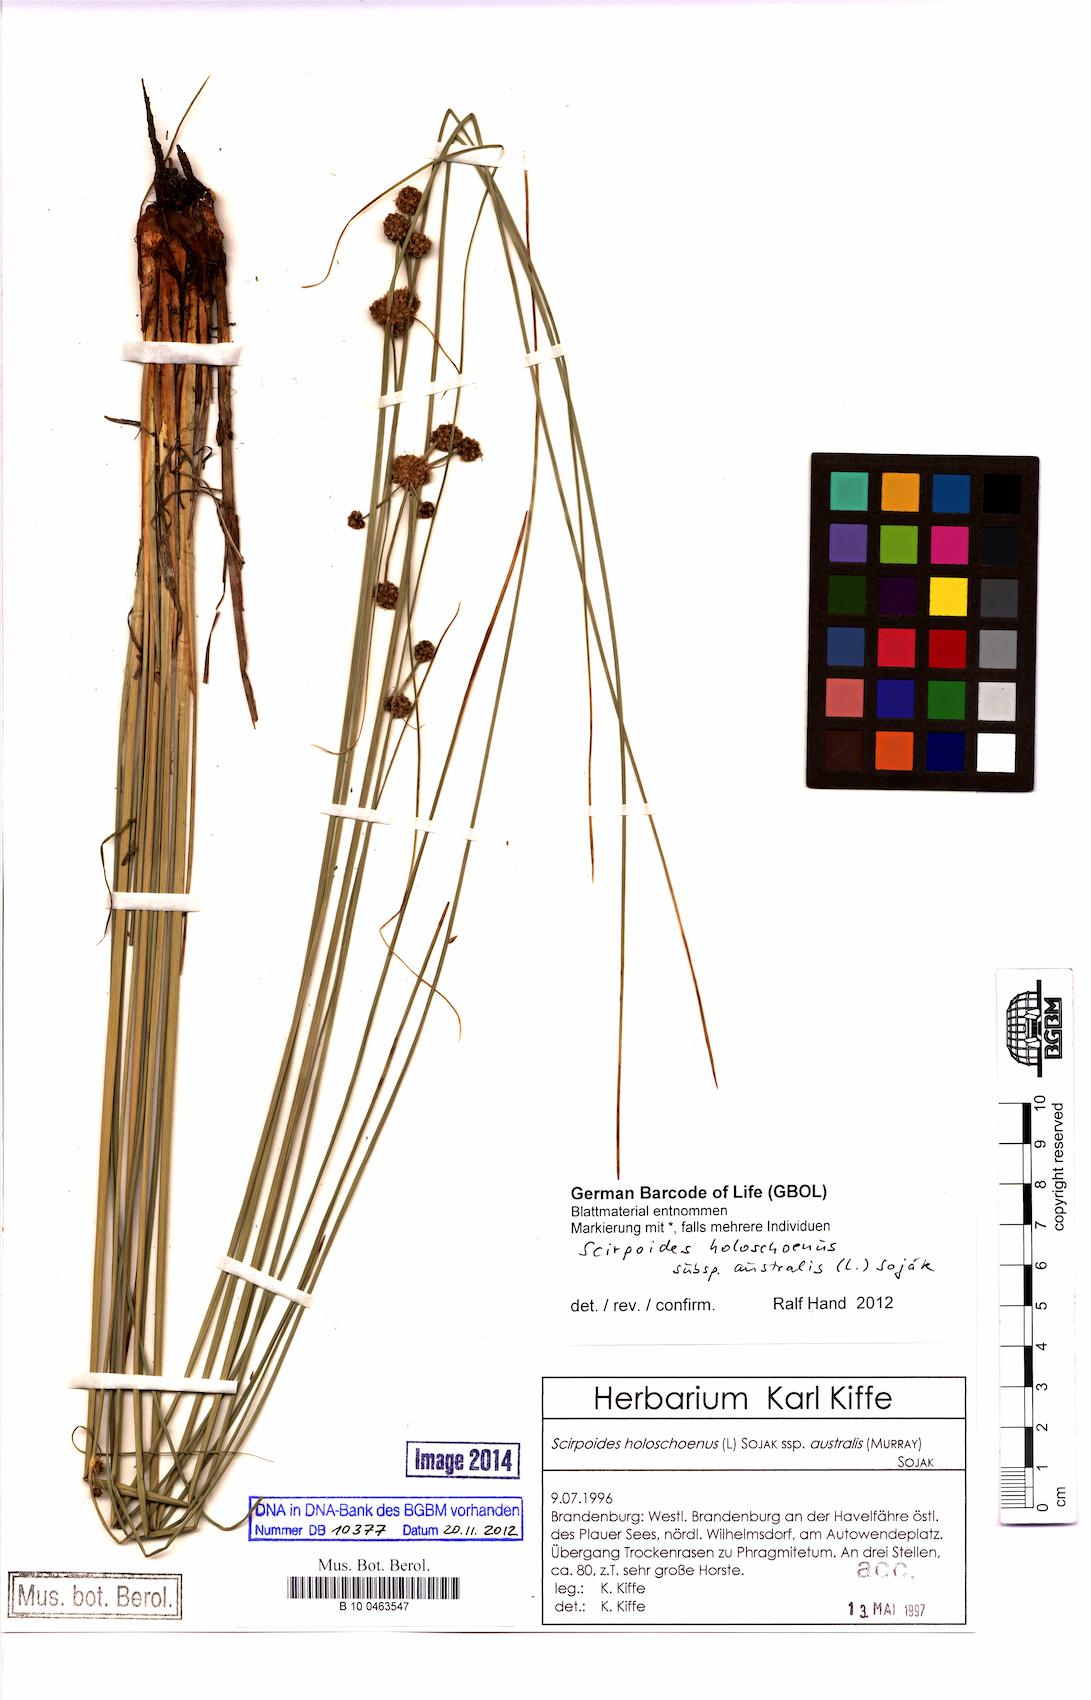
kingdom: Plantae
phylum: Tracheophyta
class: Liliopsida
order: Poales
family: Cyperaceae
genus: Scirpoides
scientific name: Scirpoides holoschoenus
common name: Round-headed club-rush
